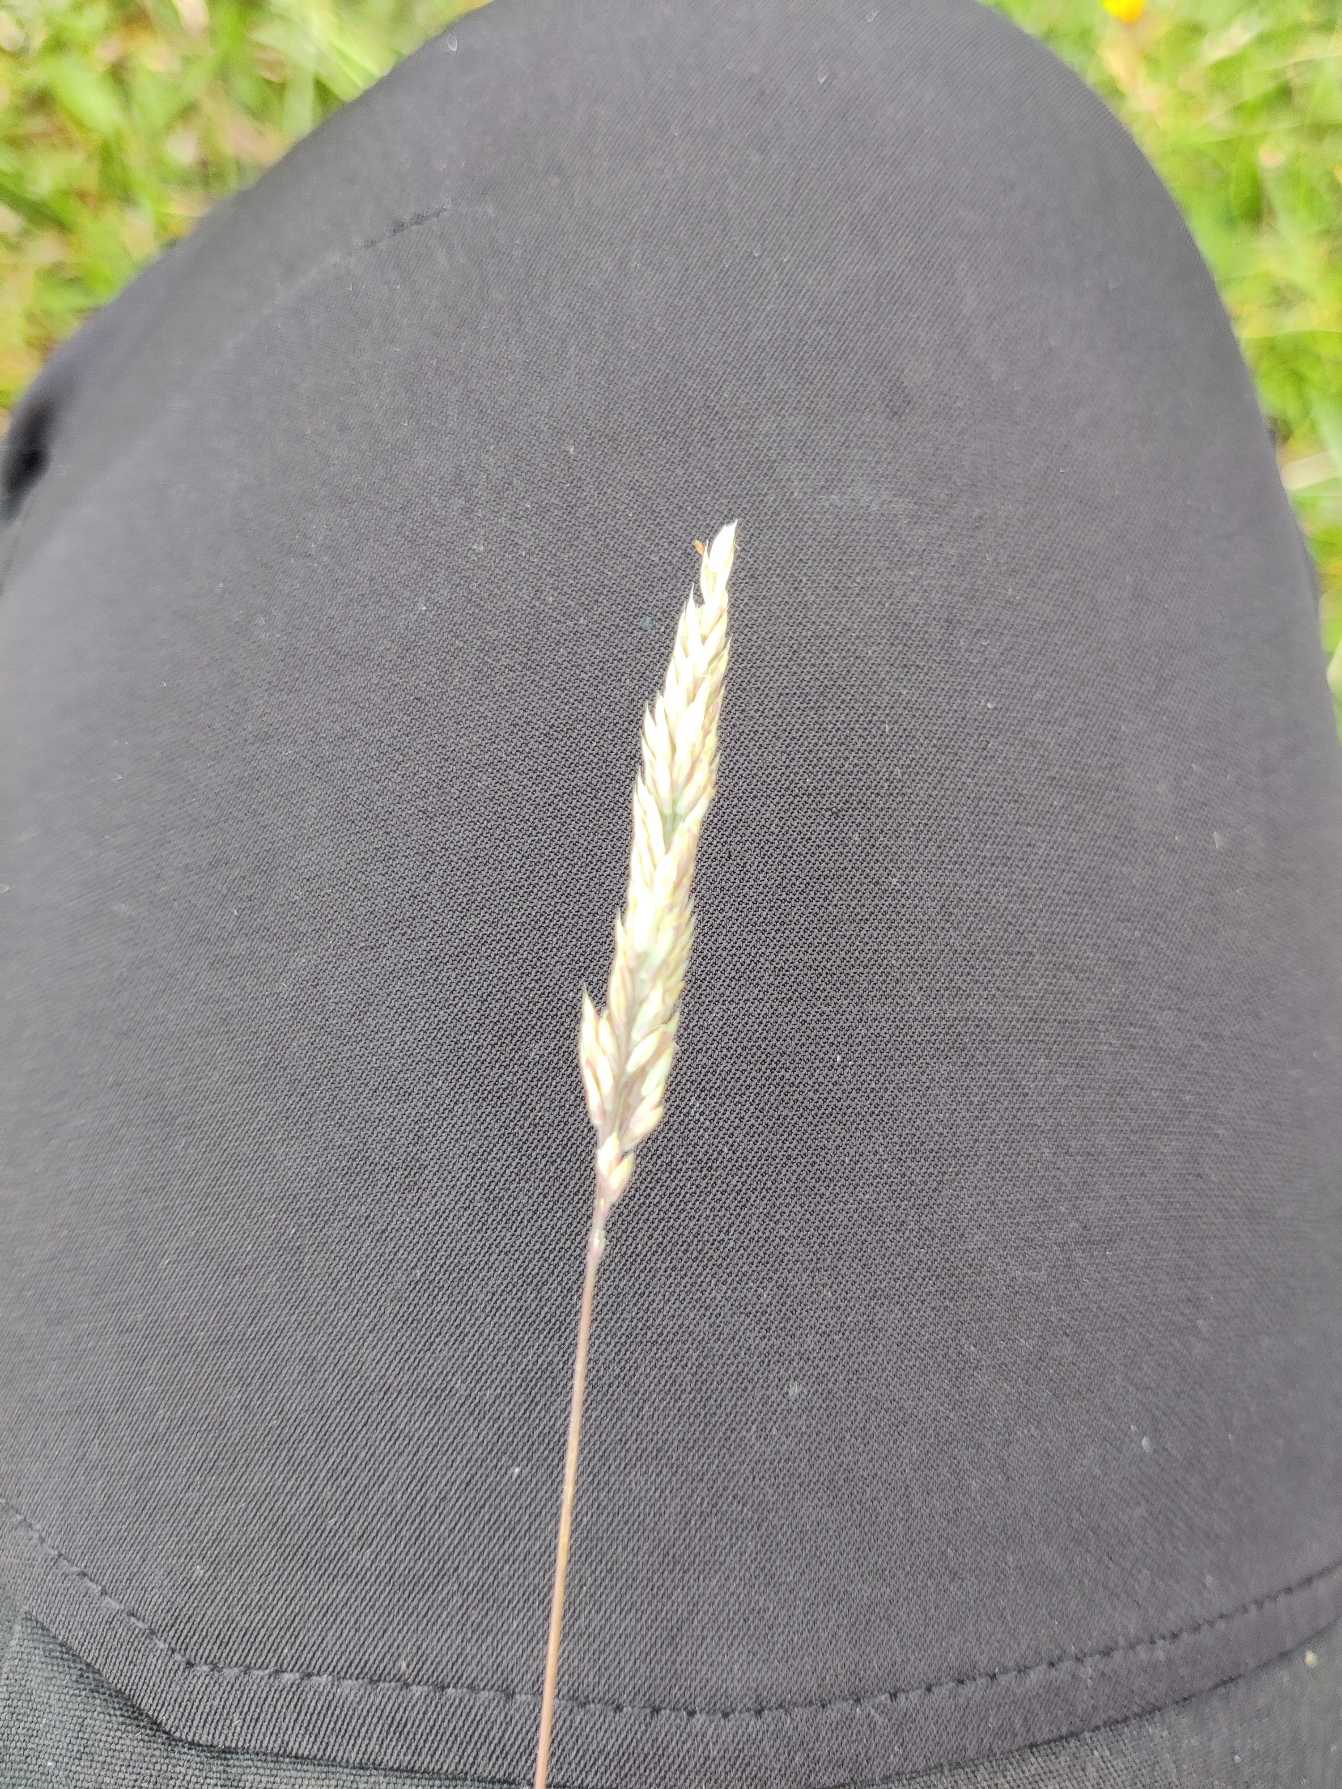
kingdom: Plantae
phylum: Tracheophyta
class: Liliopsida
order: Poales
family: Poaceae
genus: Holcus
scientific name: Holcus lanatus
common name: Fløjlsgræs
